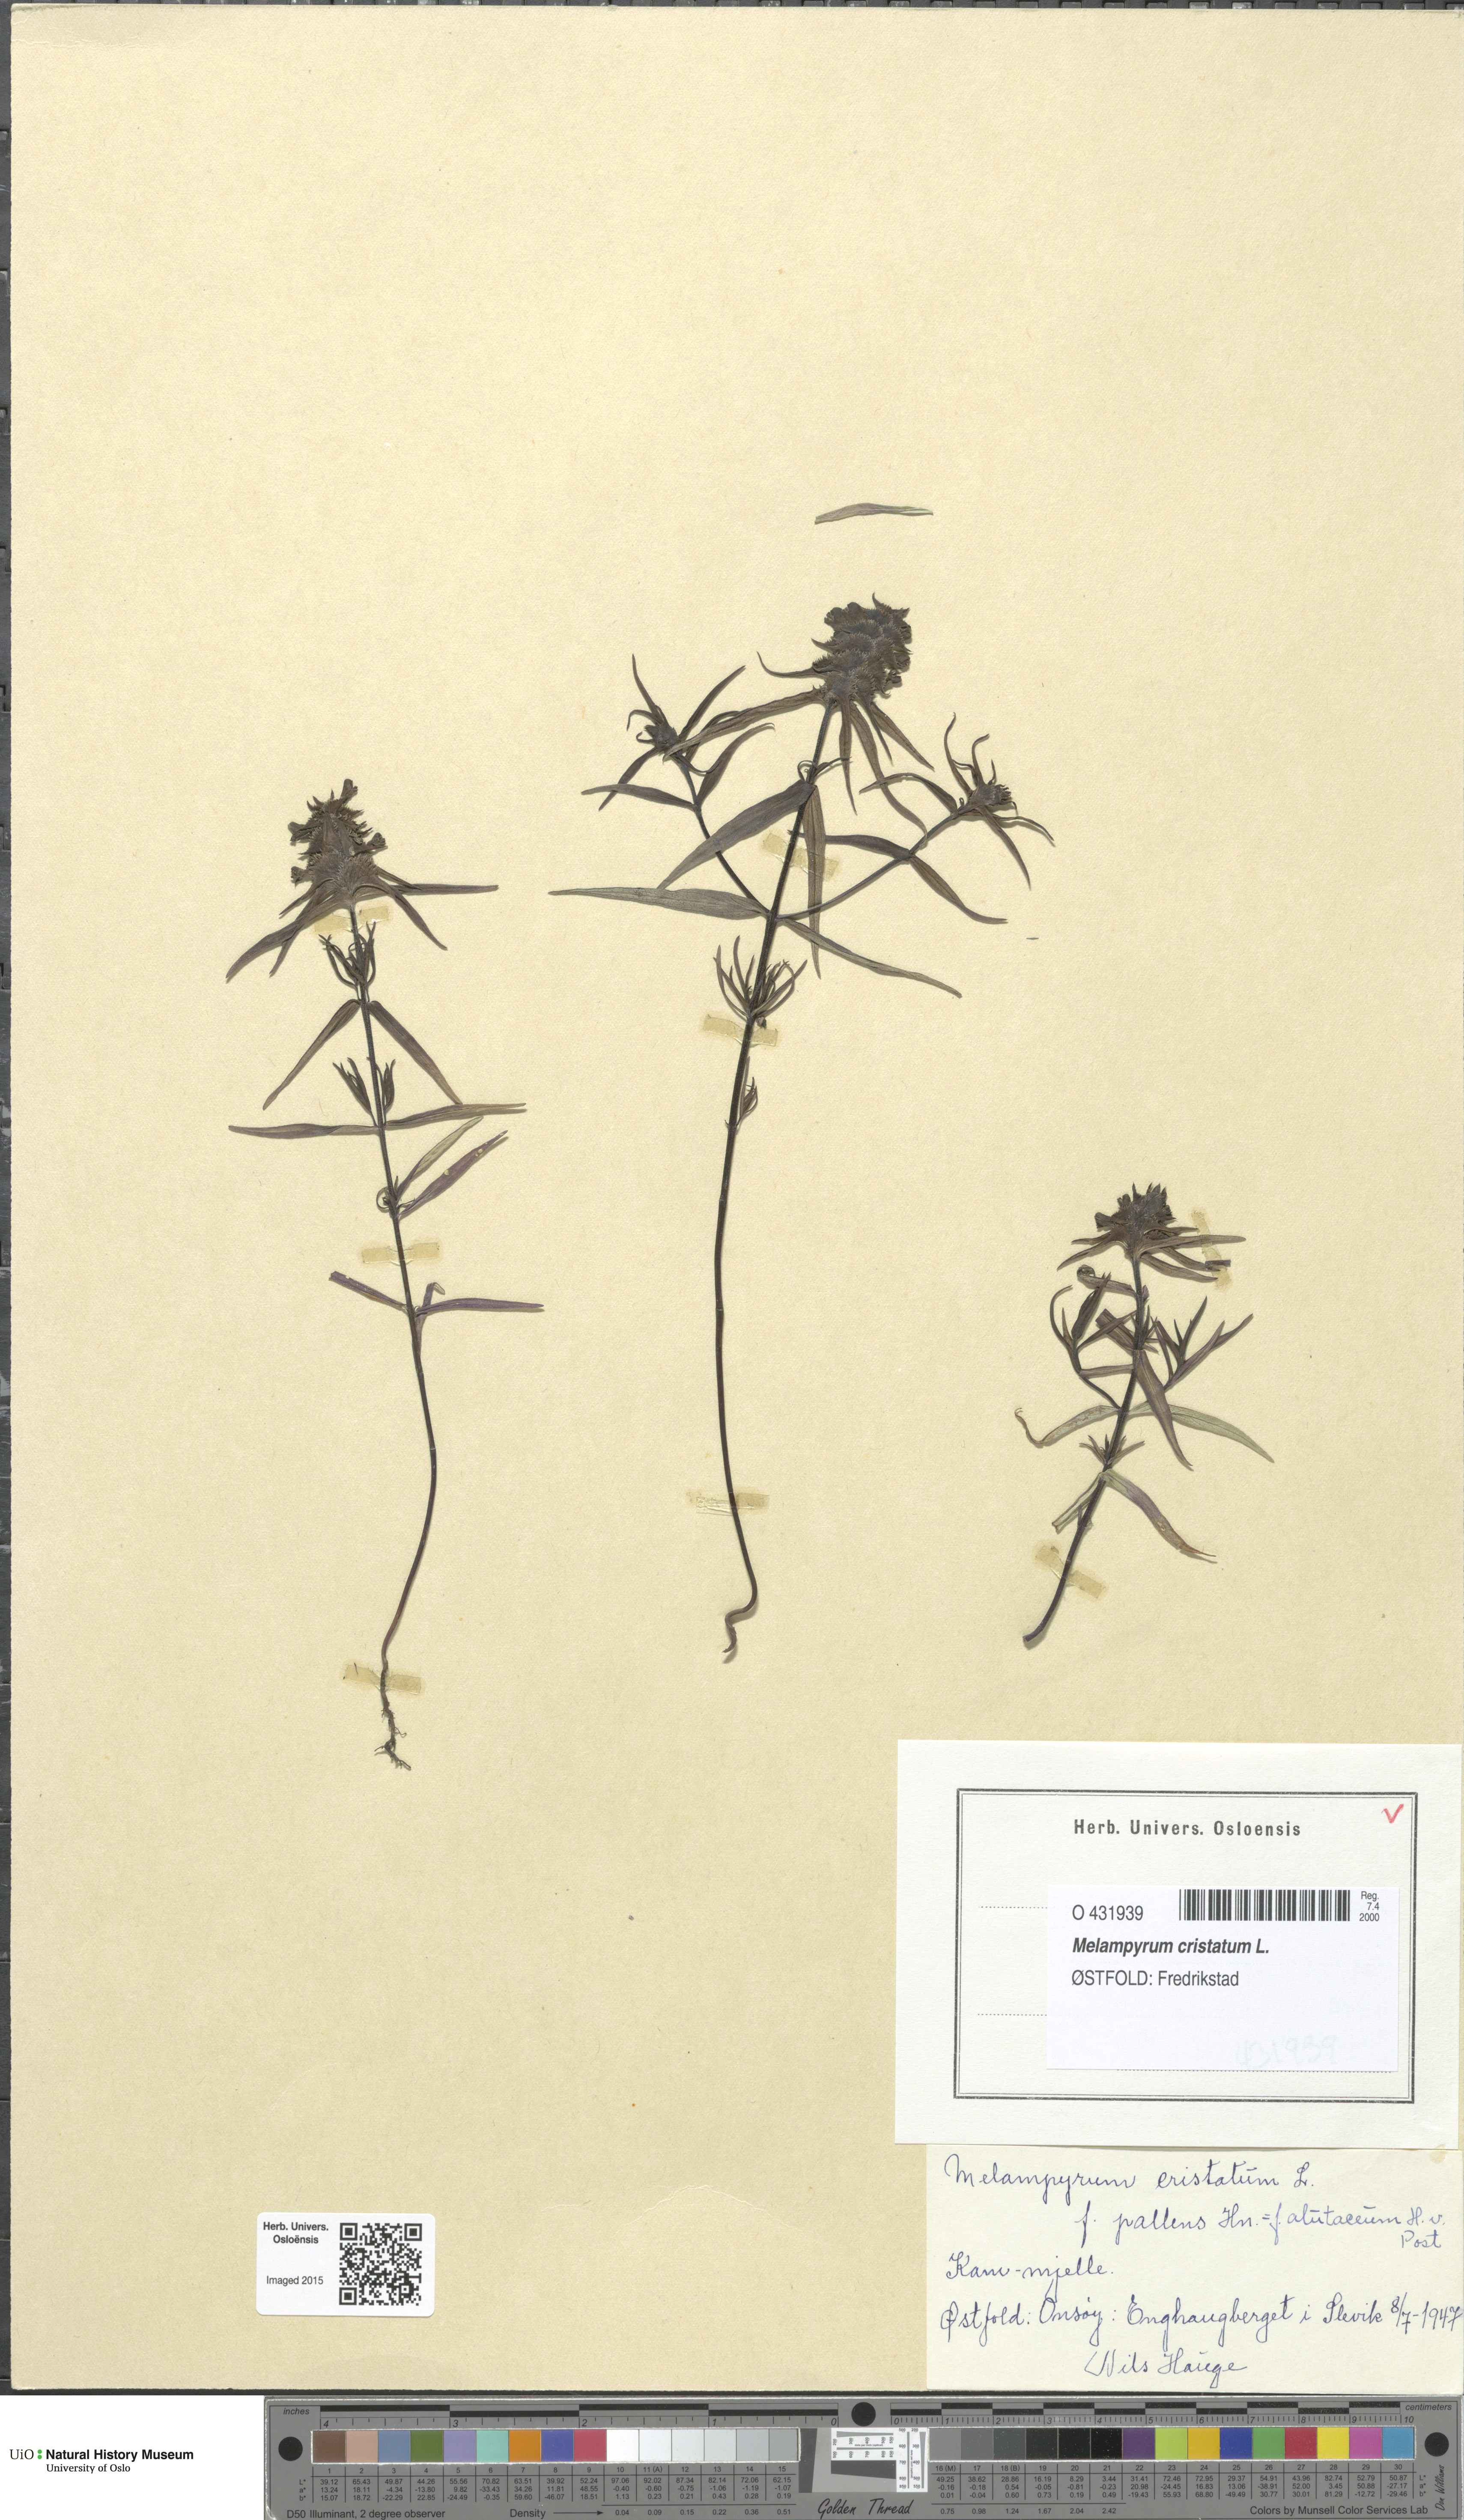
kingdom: Plantae
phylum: Tracheophyta
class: Magnoliopsida
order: Lamiales
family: Orobanchaceae
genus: Melampyrum
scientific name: Melampyrum cristatum
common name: Crested cow-wheat
